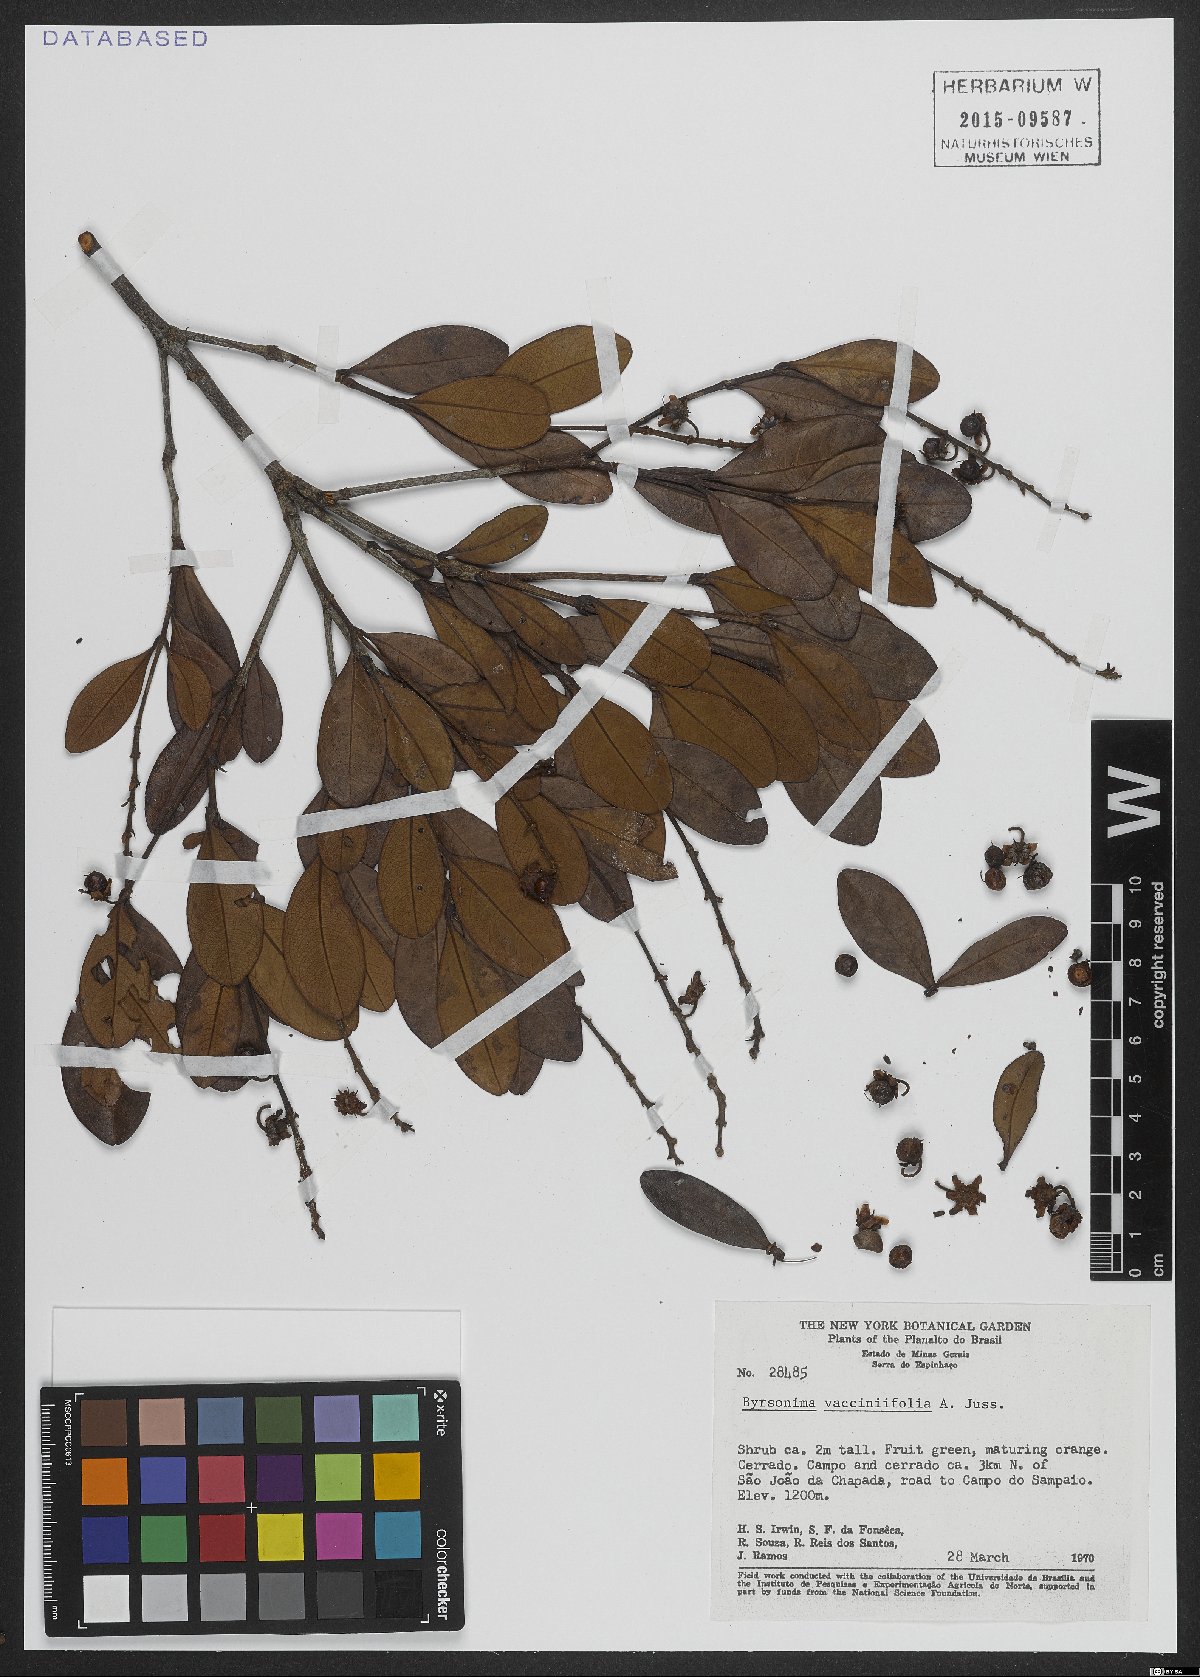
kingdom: Plantae
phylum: Tracheophyta
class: Magnoliopsida
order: Malpighiales
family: Malpighiaceae
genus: Byrsonima
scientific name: Byrsonima vacciniifolia
